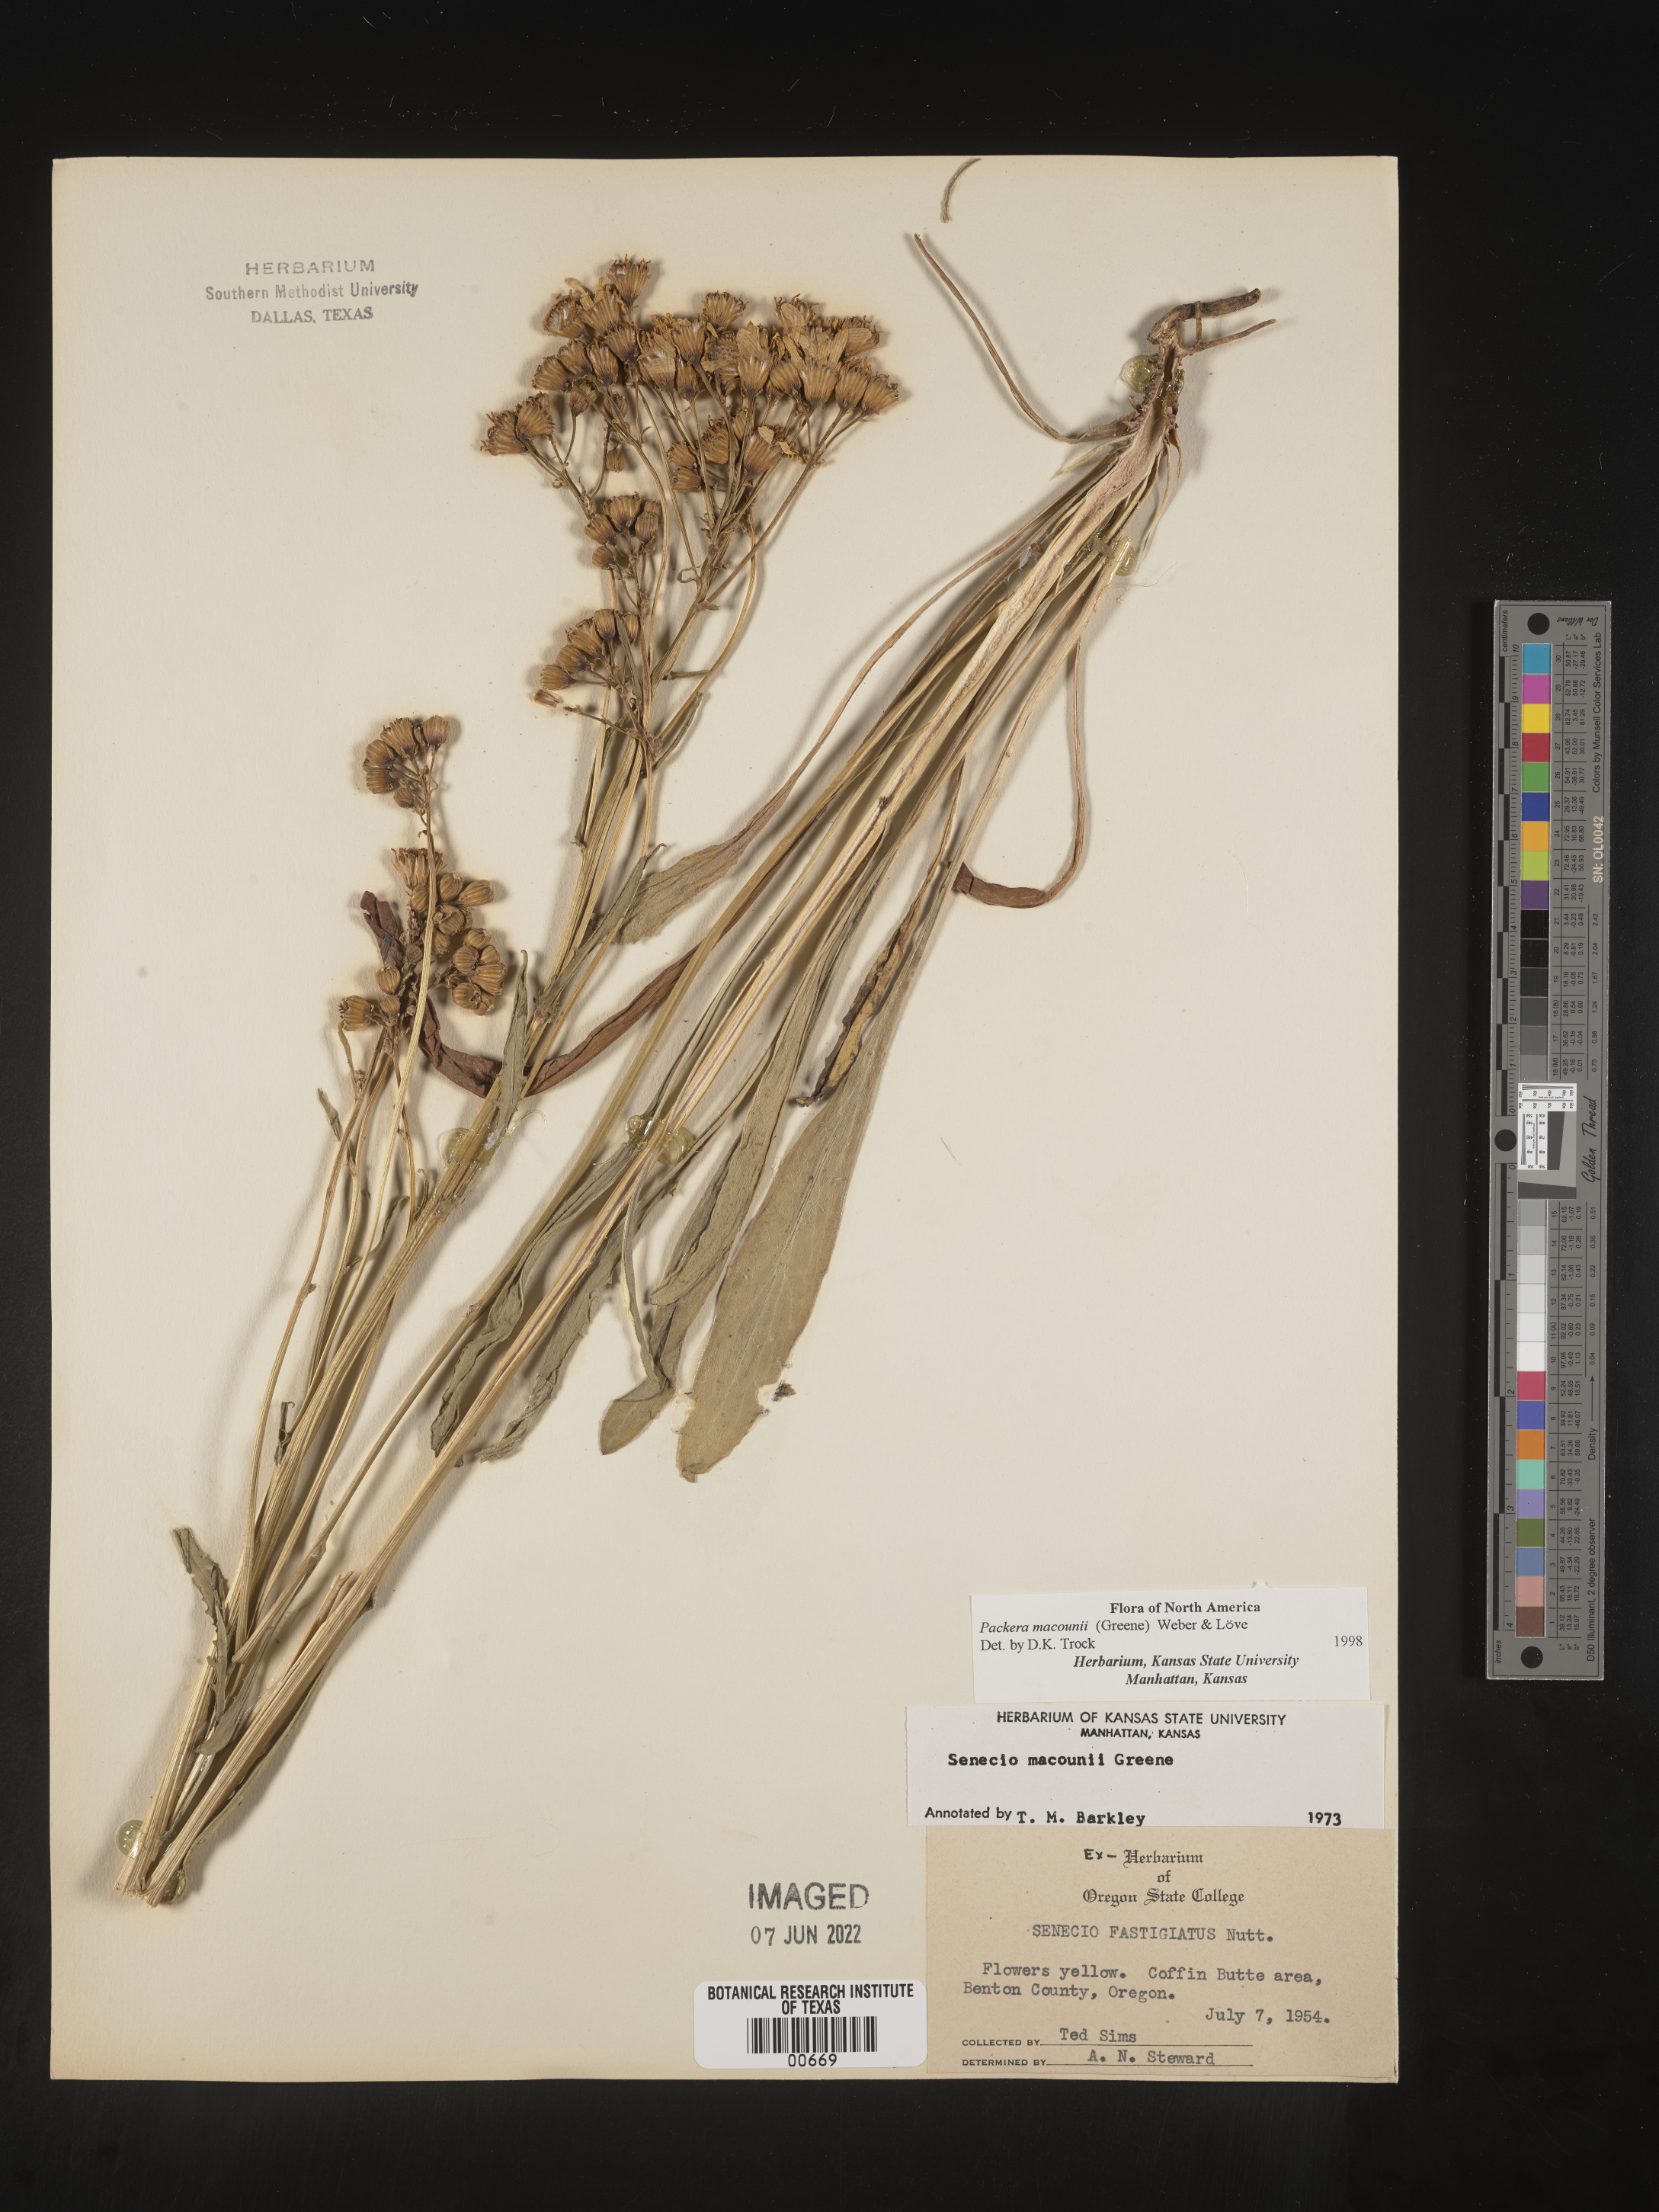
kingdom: Plantae
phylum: Tracheophyta
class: Magnoliopsida
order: Asterales
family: Asteraceae
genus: Packera
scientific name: Packera macounii
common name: Macoun's groundsel
